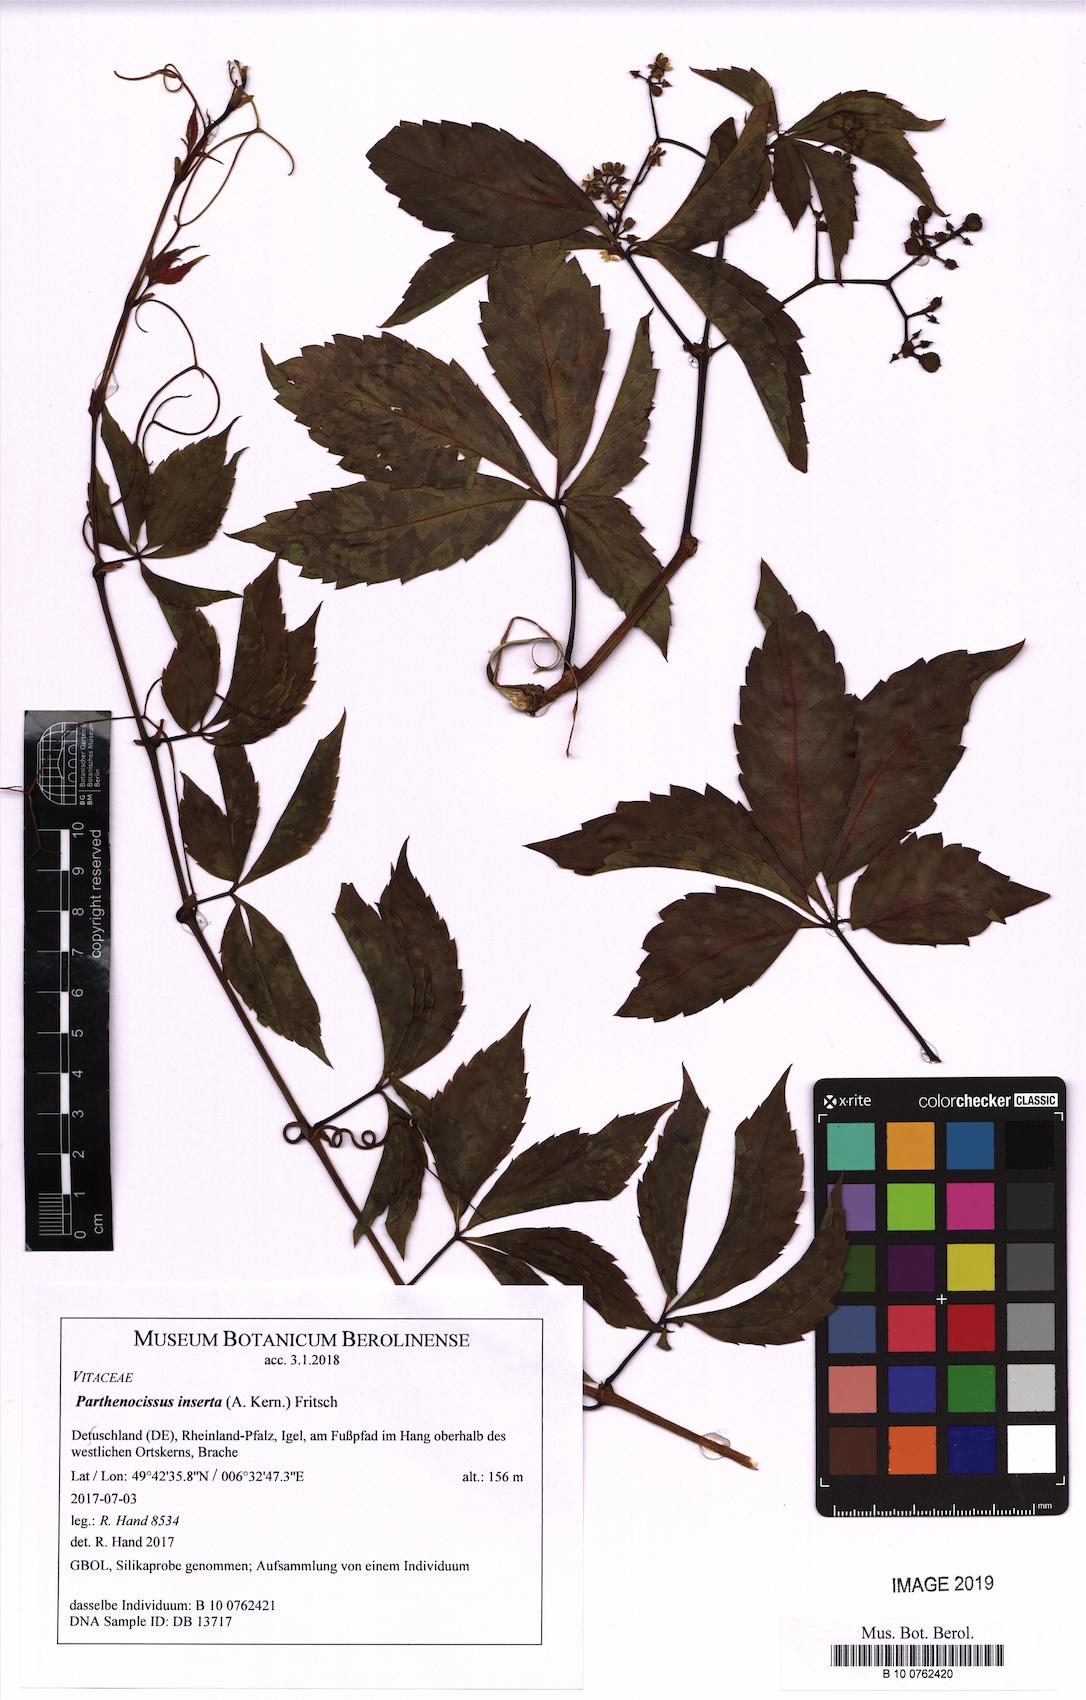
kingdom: Plantae
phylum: Tracheophyta
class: Magnoliopsida
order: Vitales
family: Vitaceae
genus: Parthenocissus
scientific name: Parthenocissus inserta
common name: False virginia-creeper
